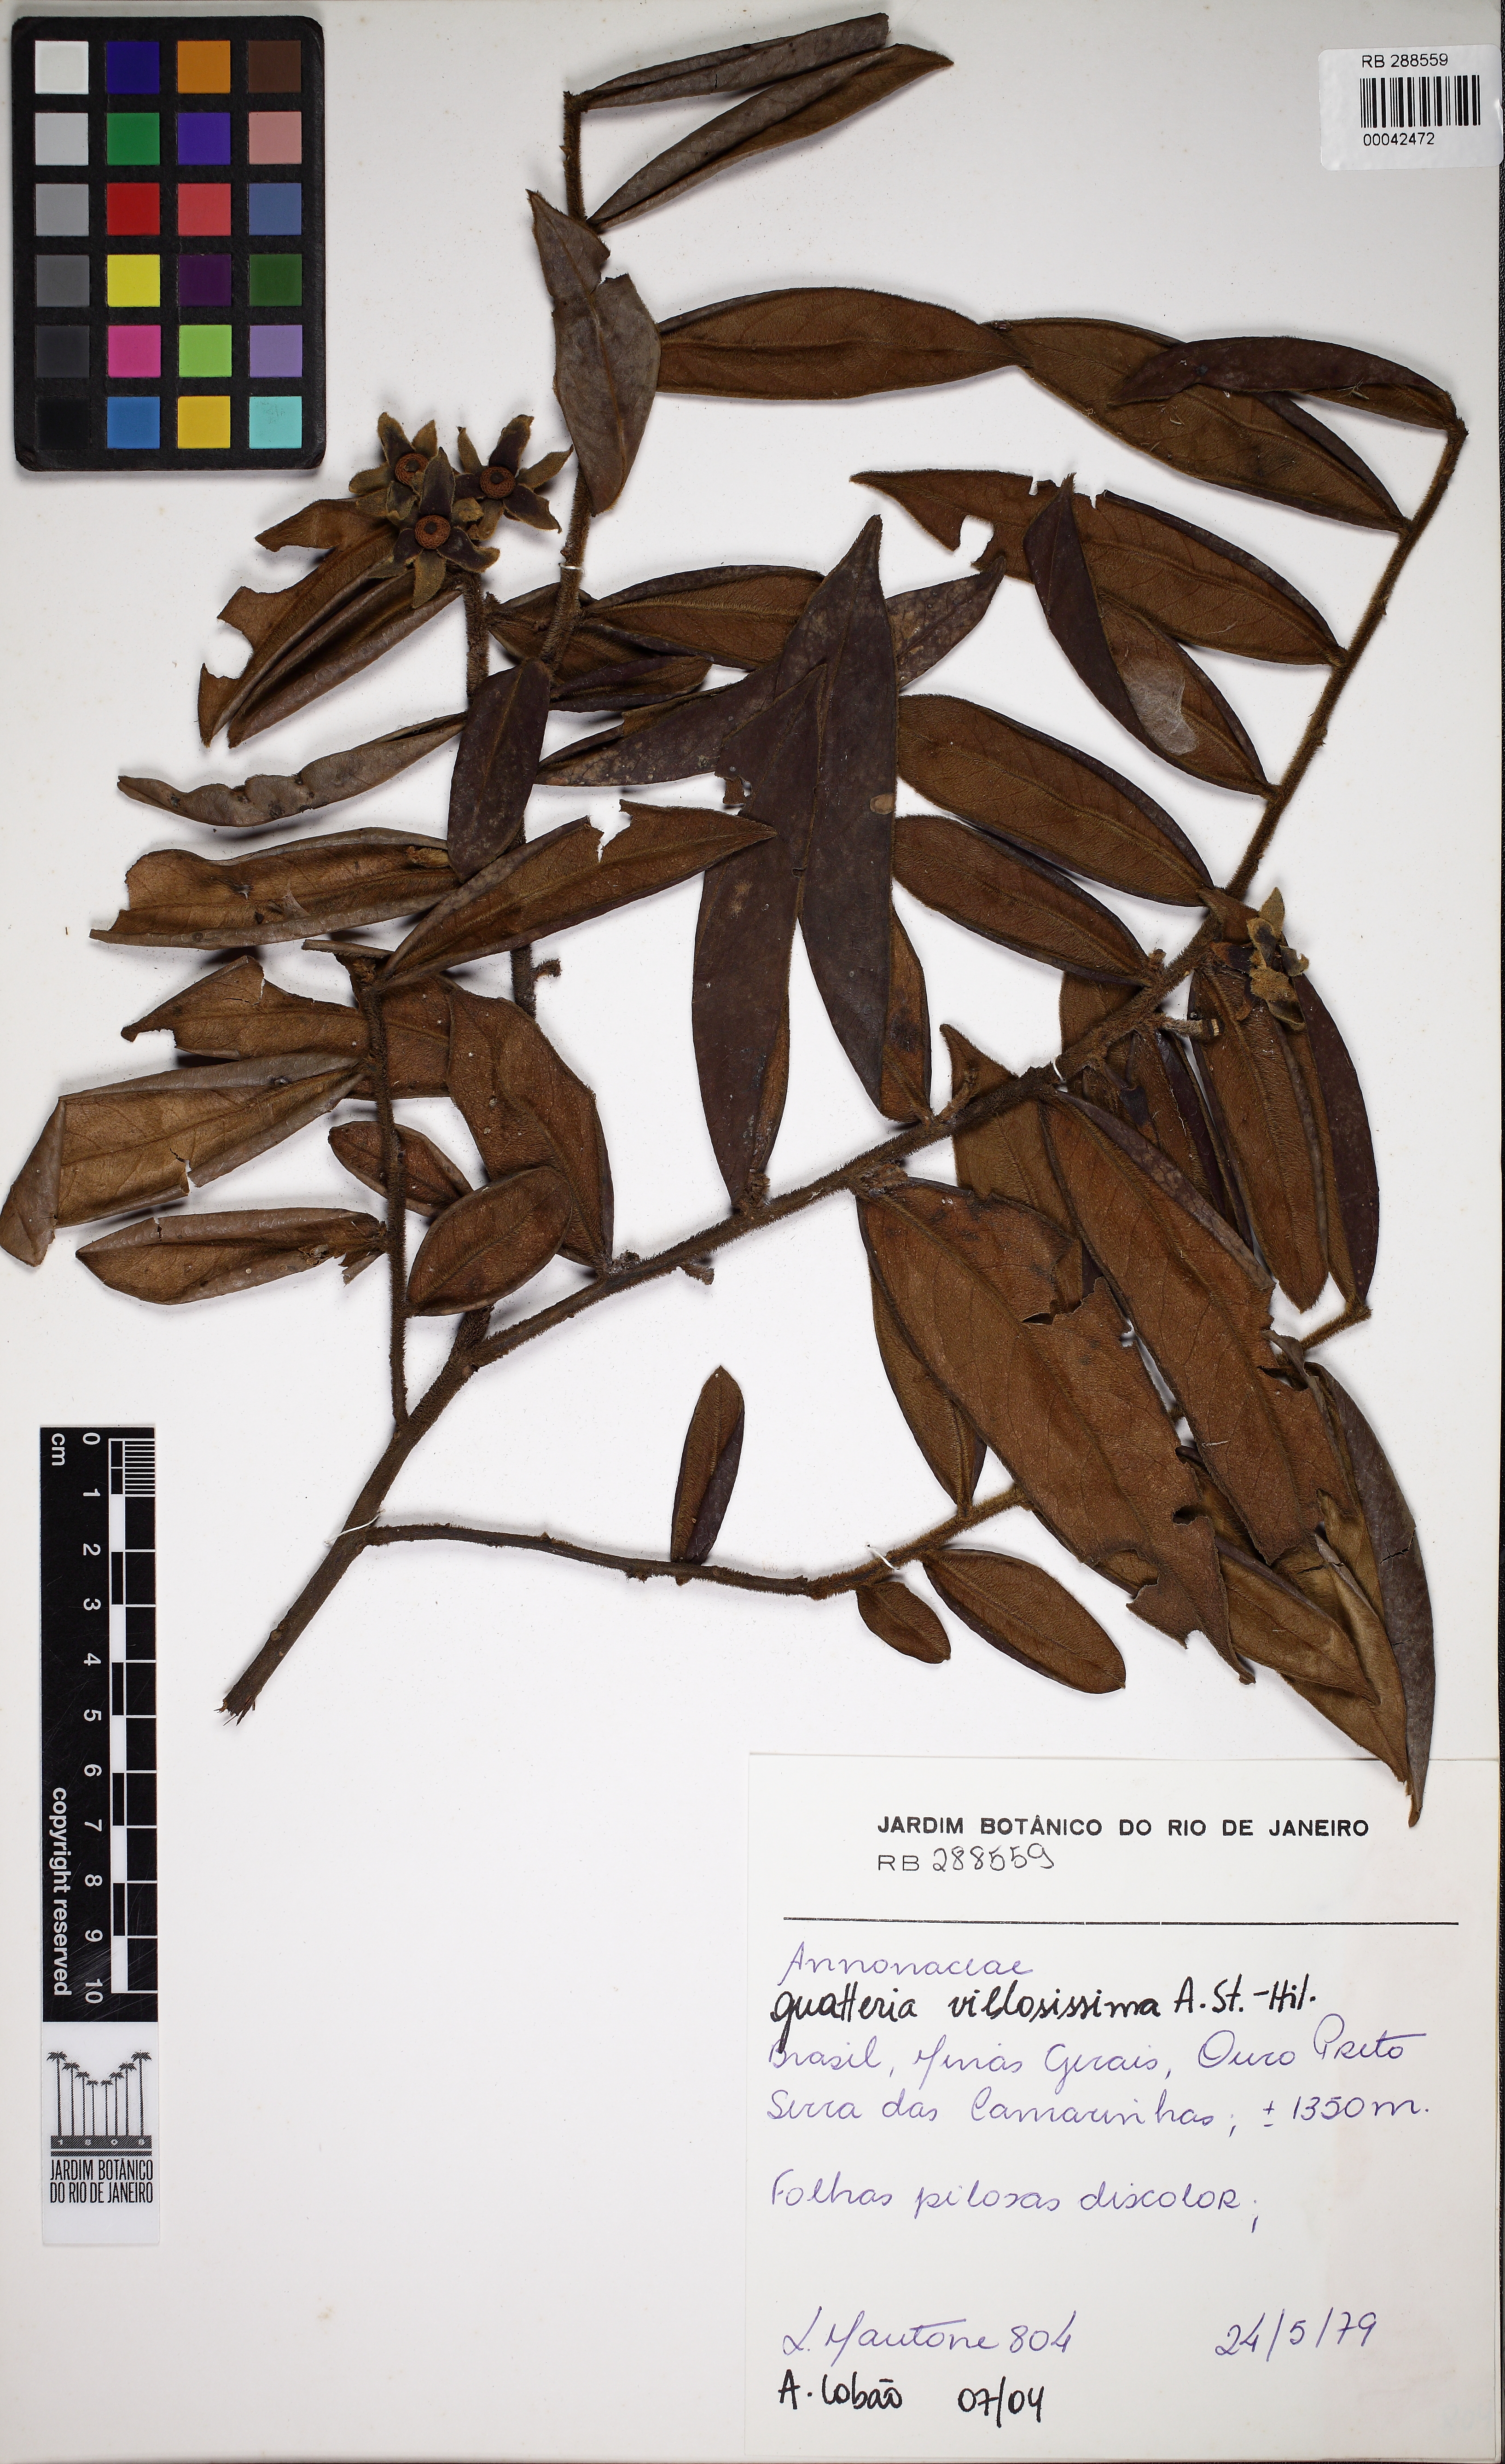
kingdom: Plantae
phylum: Tracheophyta
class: Magnoliopsida
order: Magnoliales
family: Annonaceae
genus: Guatteria
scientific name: Guatteria villosissima
